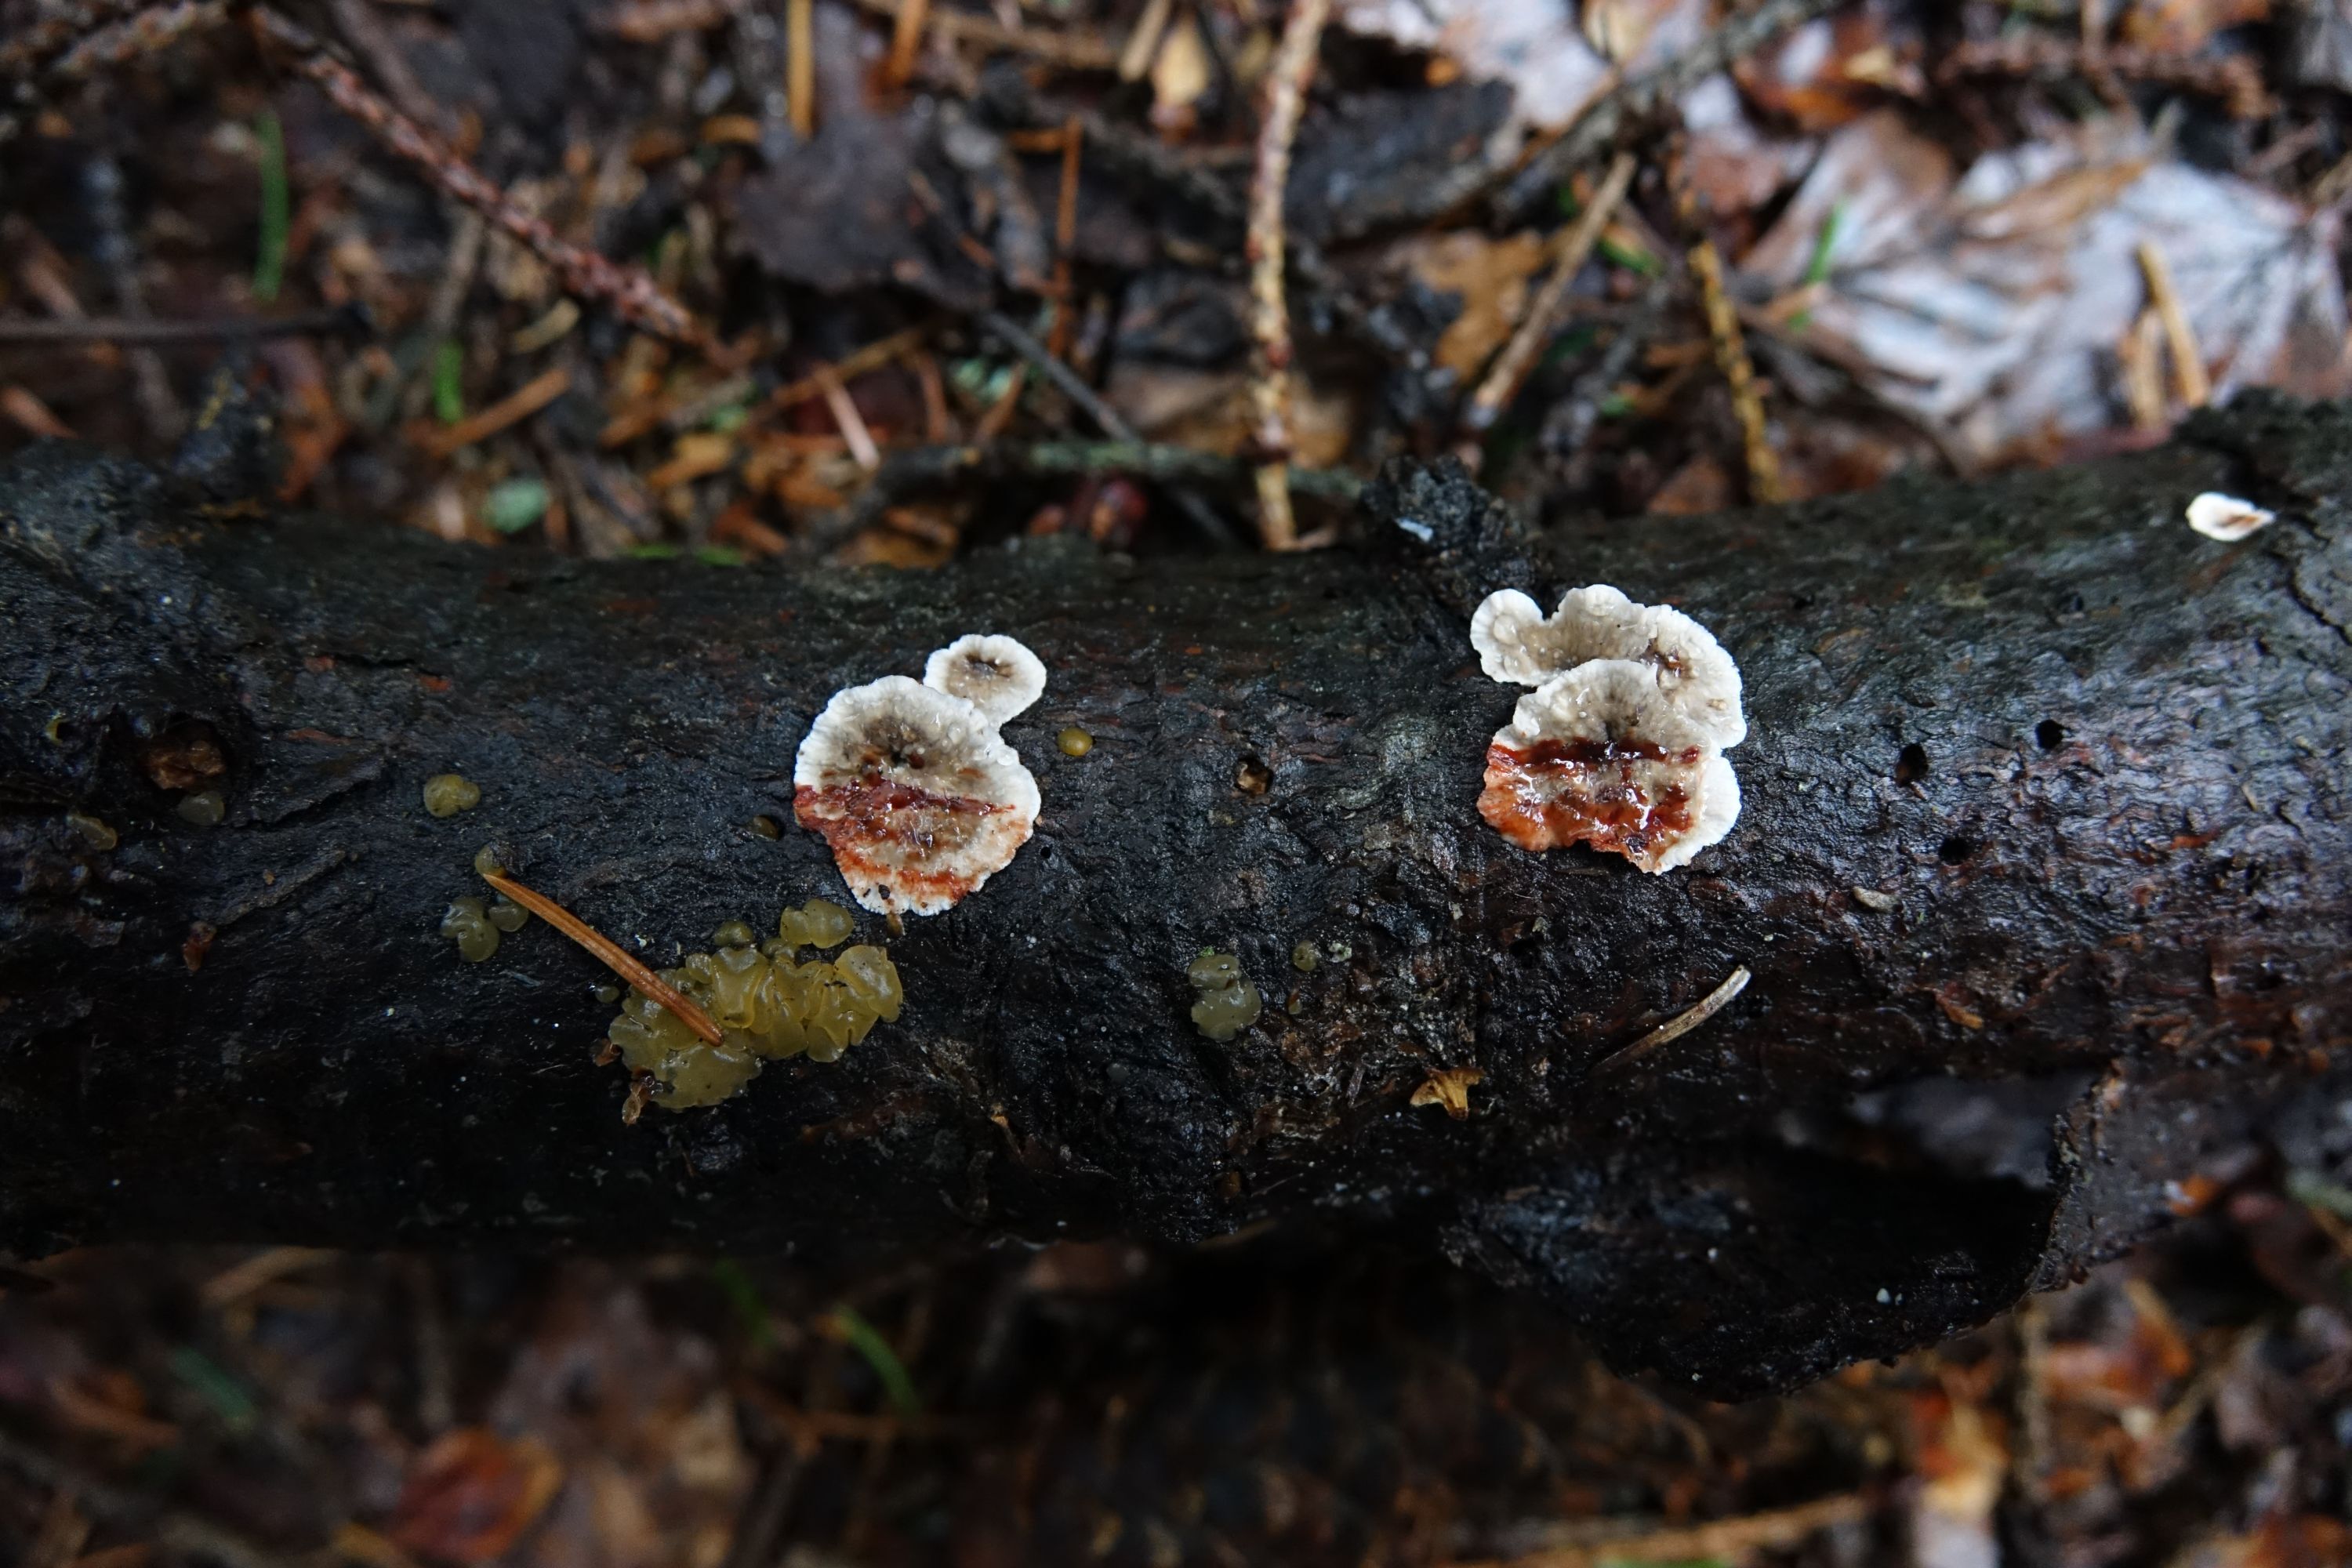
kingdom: Fungi
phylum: Basidiomycota
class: Agaricomycetes
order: Russulales
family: Stereaceae
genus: Stereum
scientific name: Stereum sanguinolentum
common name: Bleeding conifer crust
